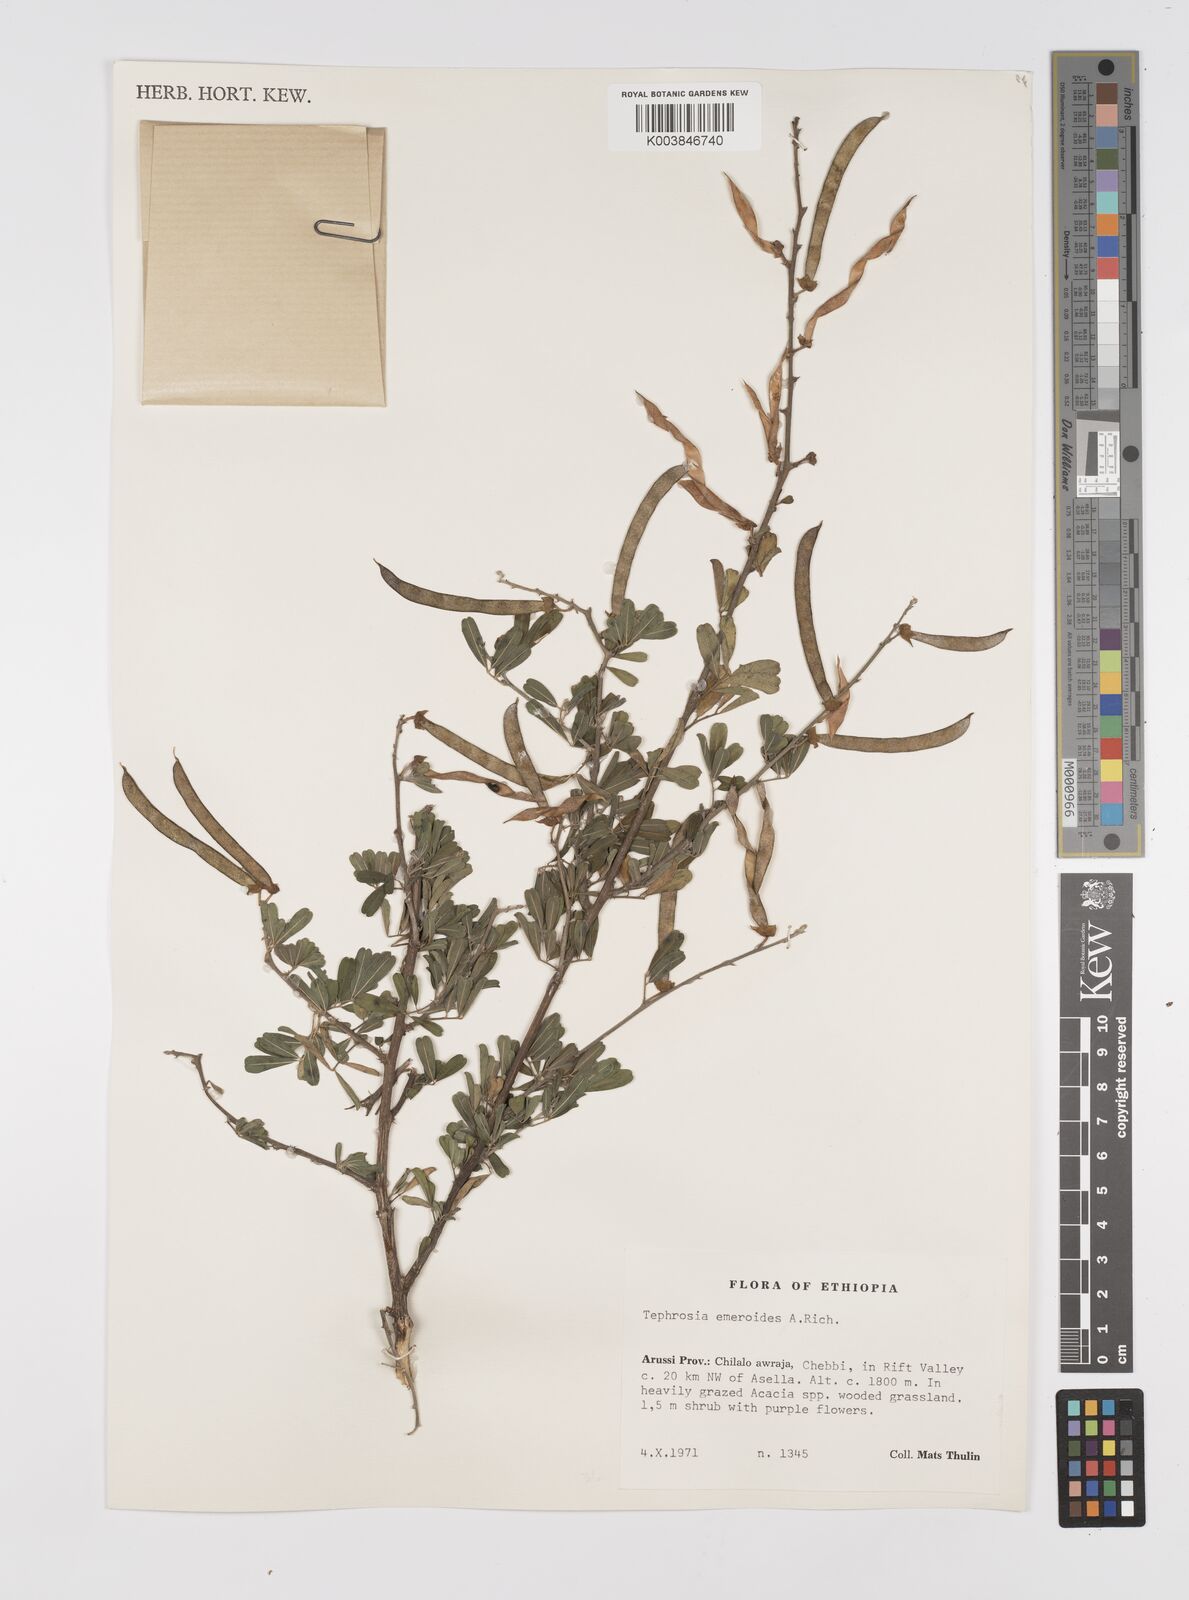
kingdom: Plantae
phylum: Tracheophyta
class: Magnoliopsida
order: Fabales
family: Fabaceae
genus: Tephrosia
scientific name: Tephrosia emeroides
